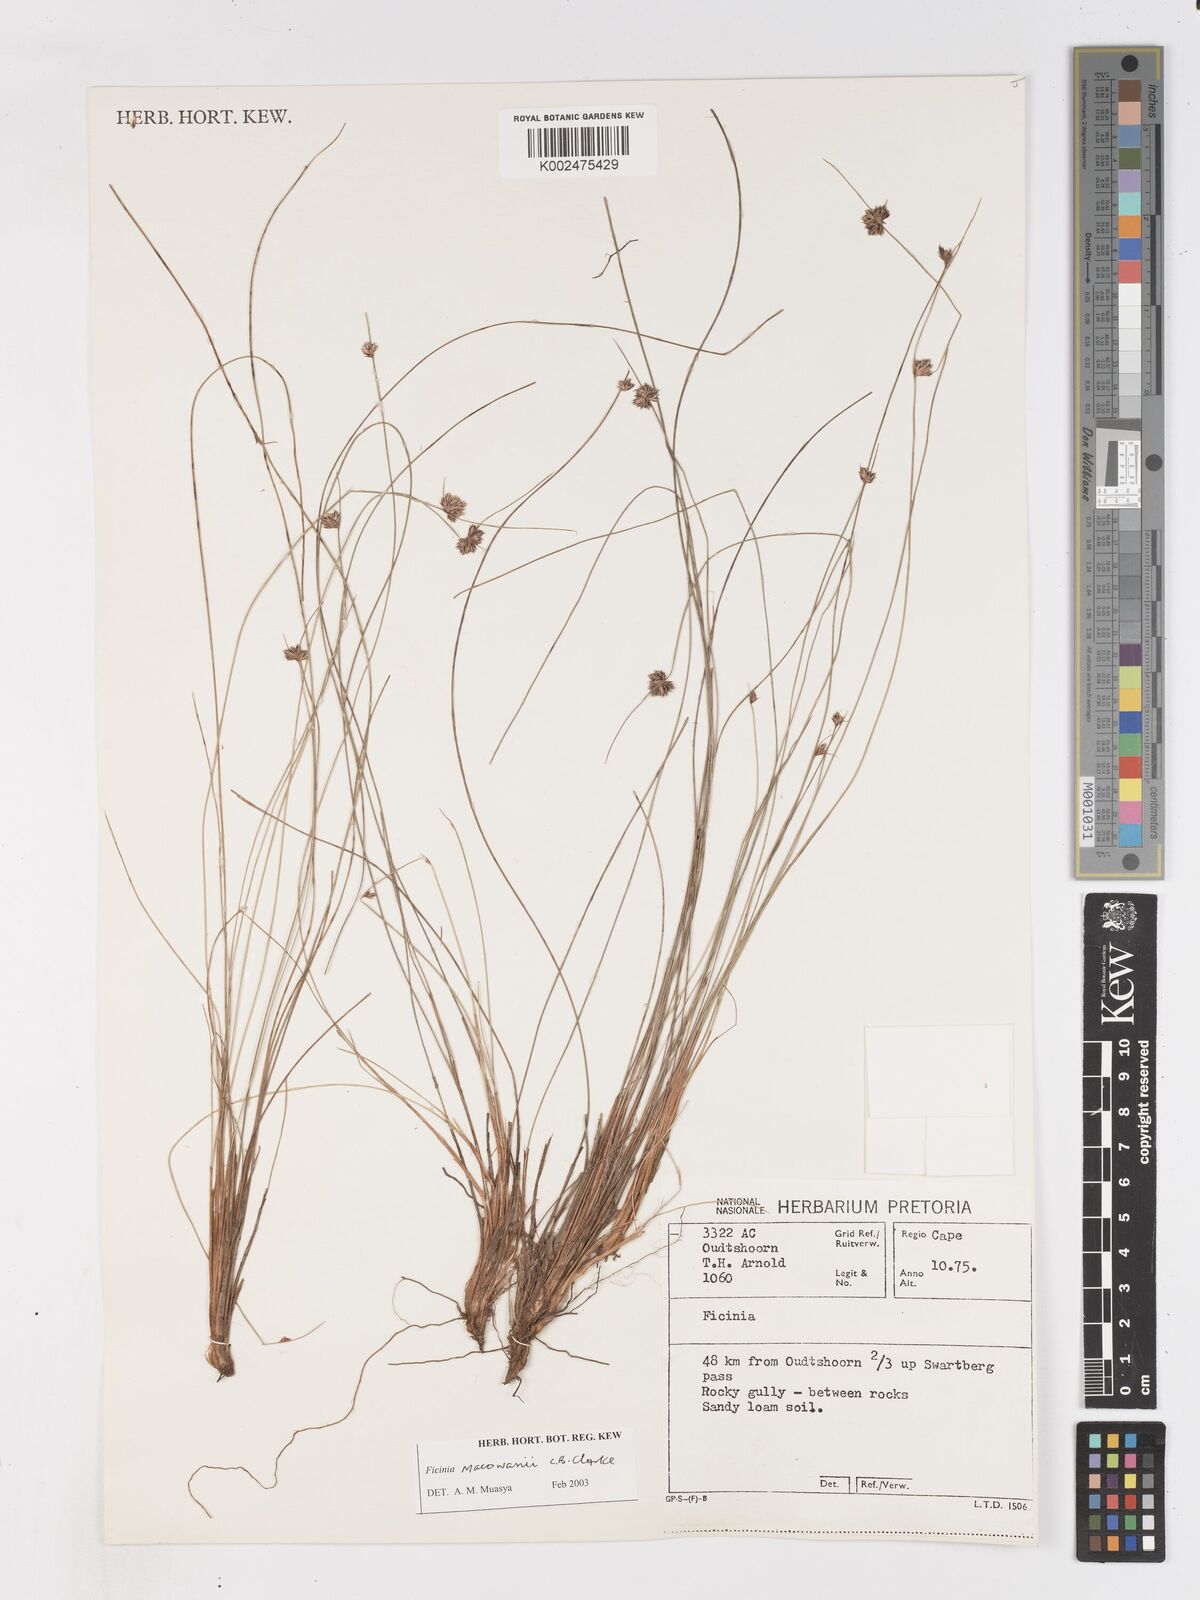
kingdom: Plantae
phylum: Tracheophyta
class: Liliopsida
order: Poales
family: Cyperaceae
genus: Ficinia
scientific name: Ficinia acuminata
